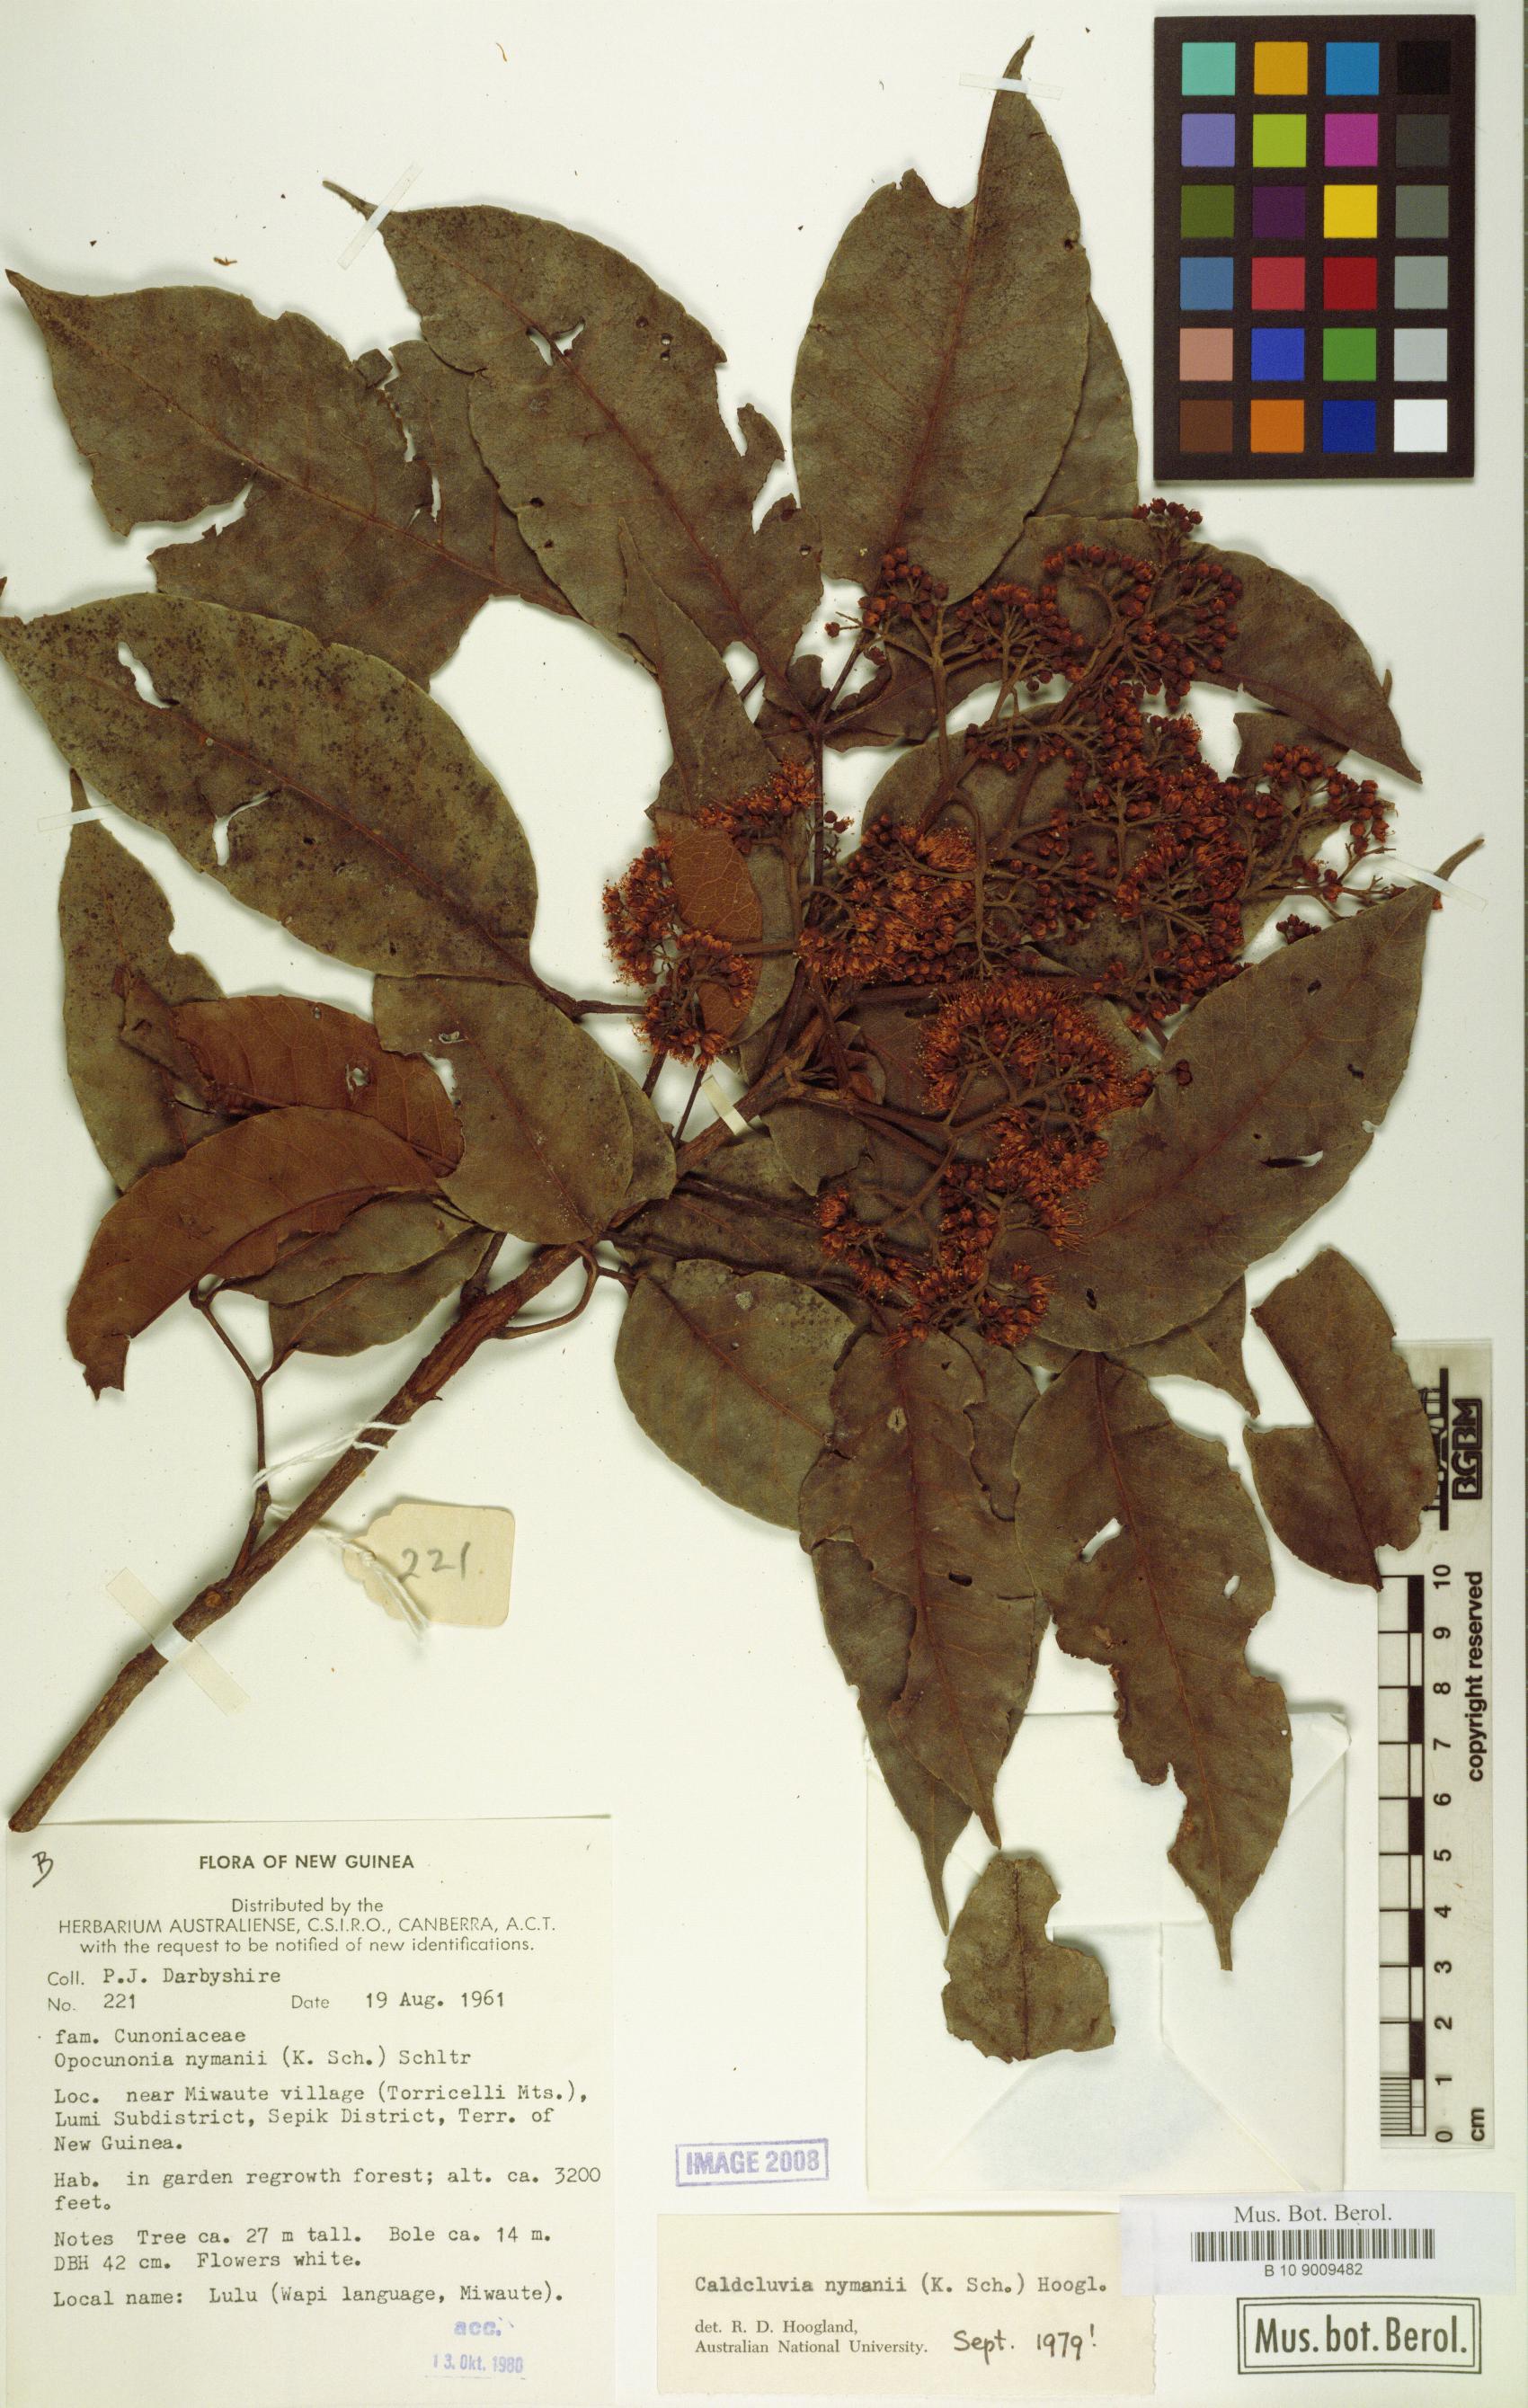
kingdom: Plantae
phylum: Tracheophyta
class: Magnoliopsida
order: Oxalidales
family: Cunoniaceae
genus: Opocunonia
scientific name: Opocunonia nymanii
